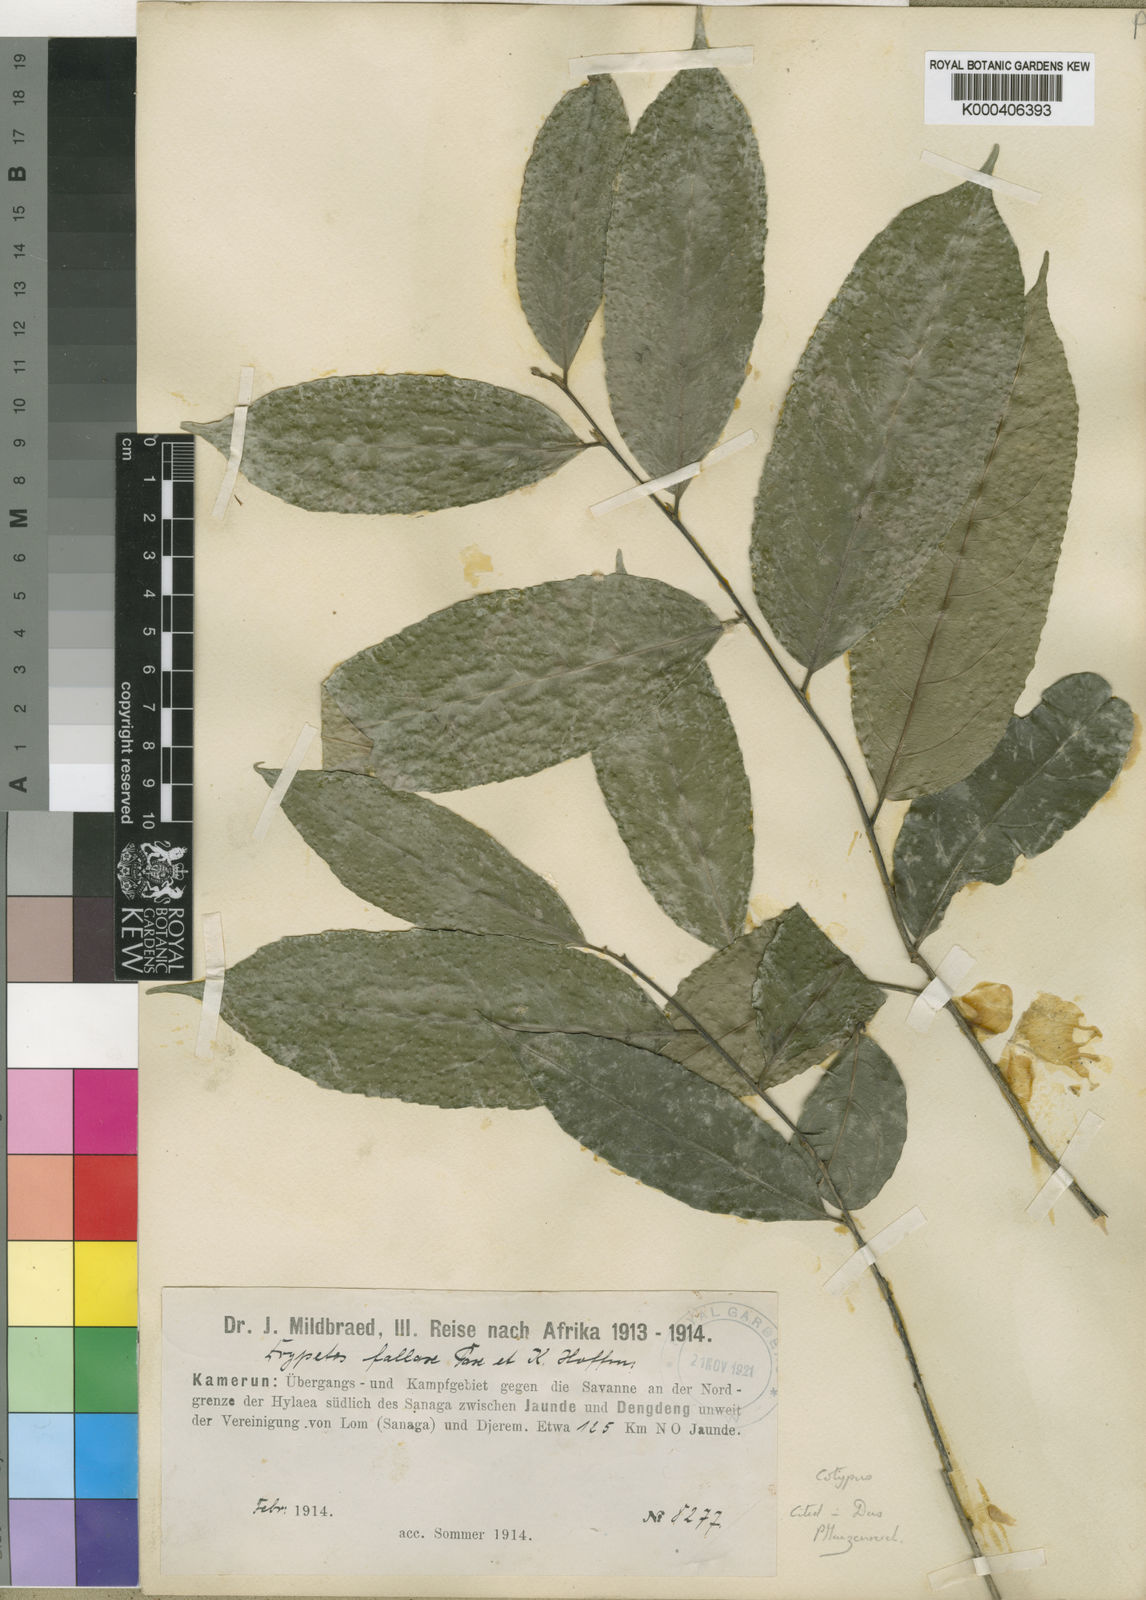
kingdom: Plantae
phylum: Tracheophyta
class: Magnoliopsida
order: Malpighiales
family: Putranjivaceae
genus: Drypetes
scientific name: Drypetes fallax
